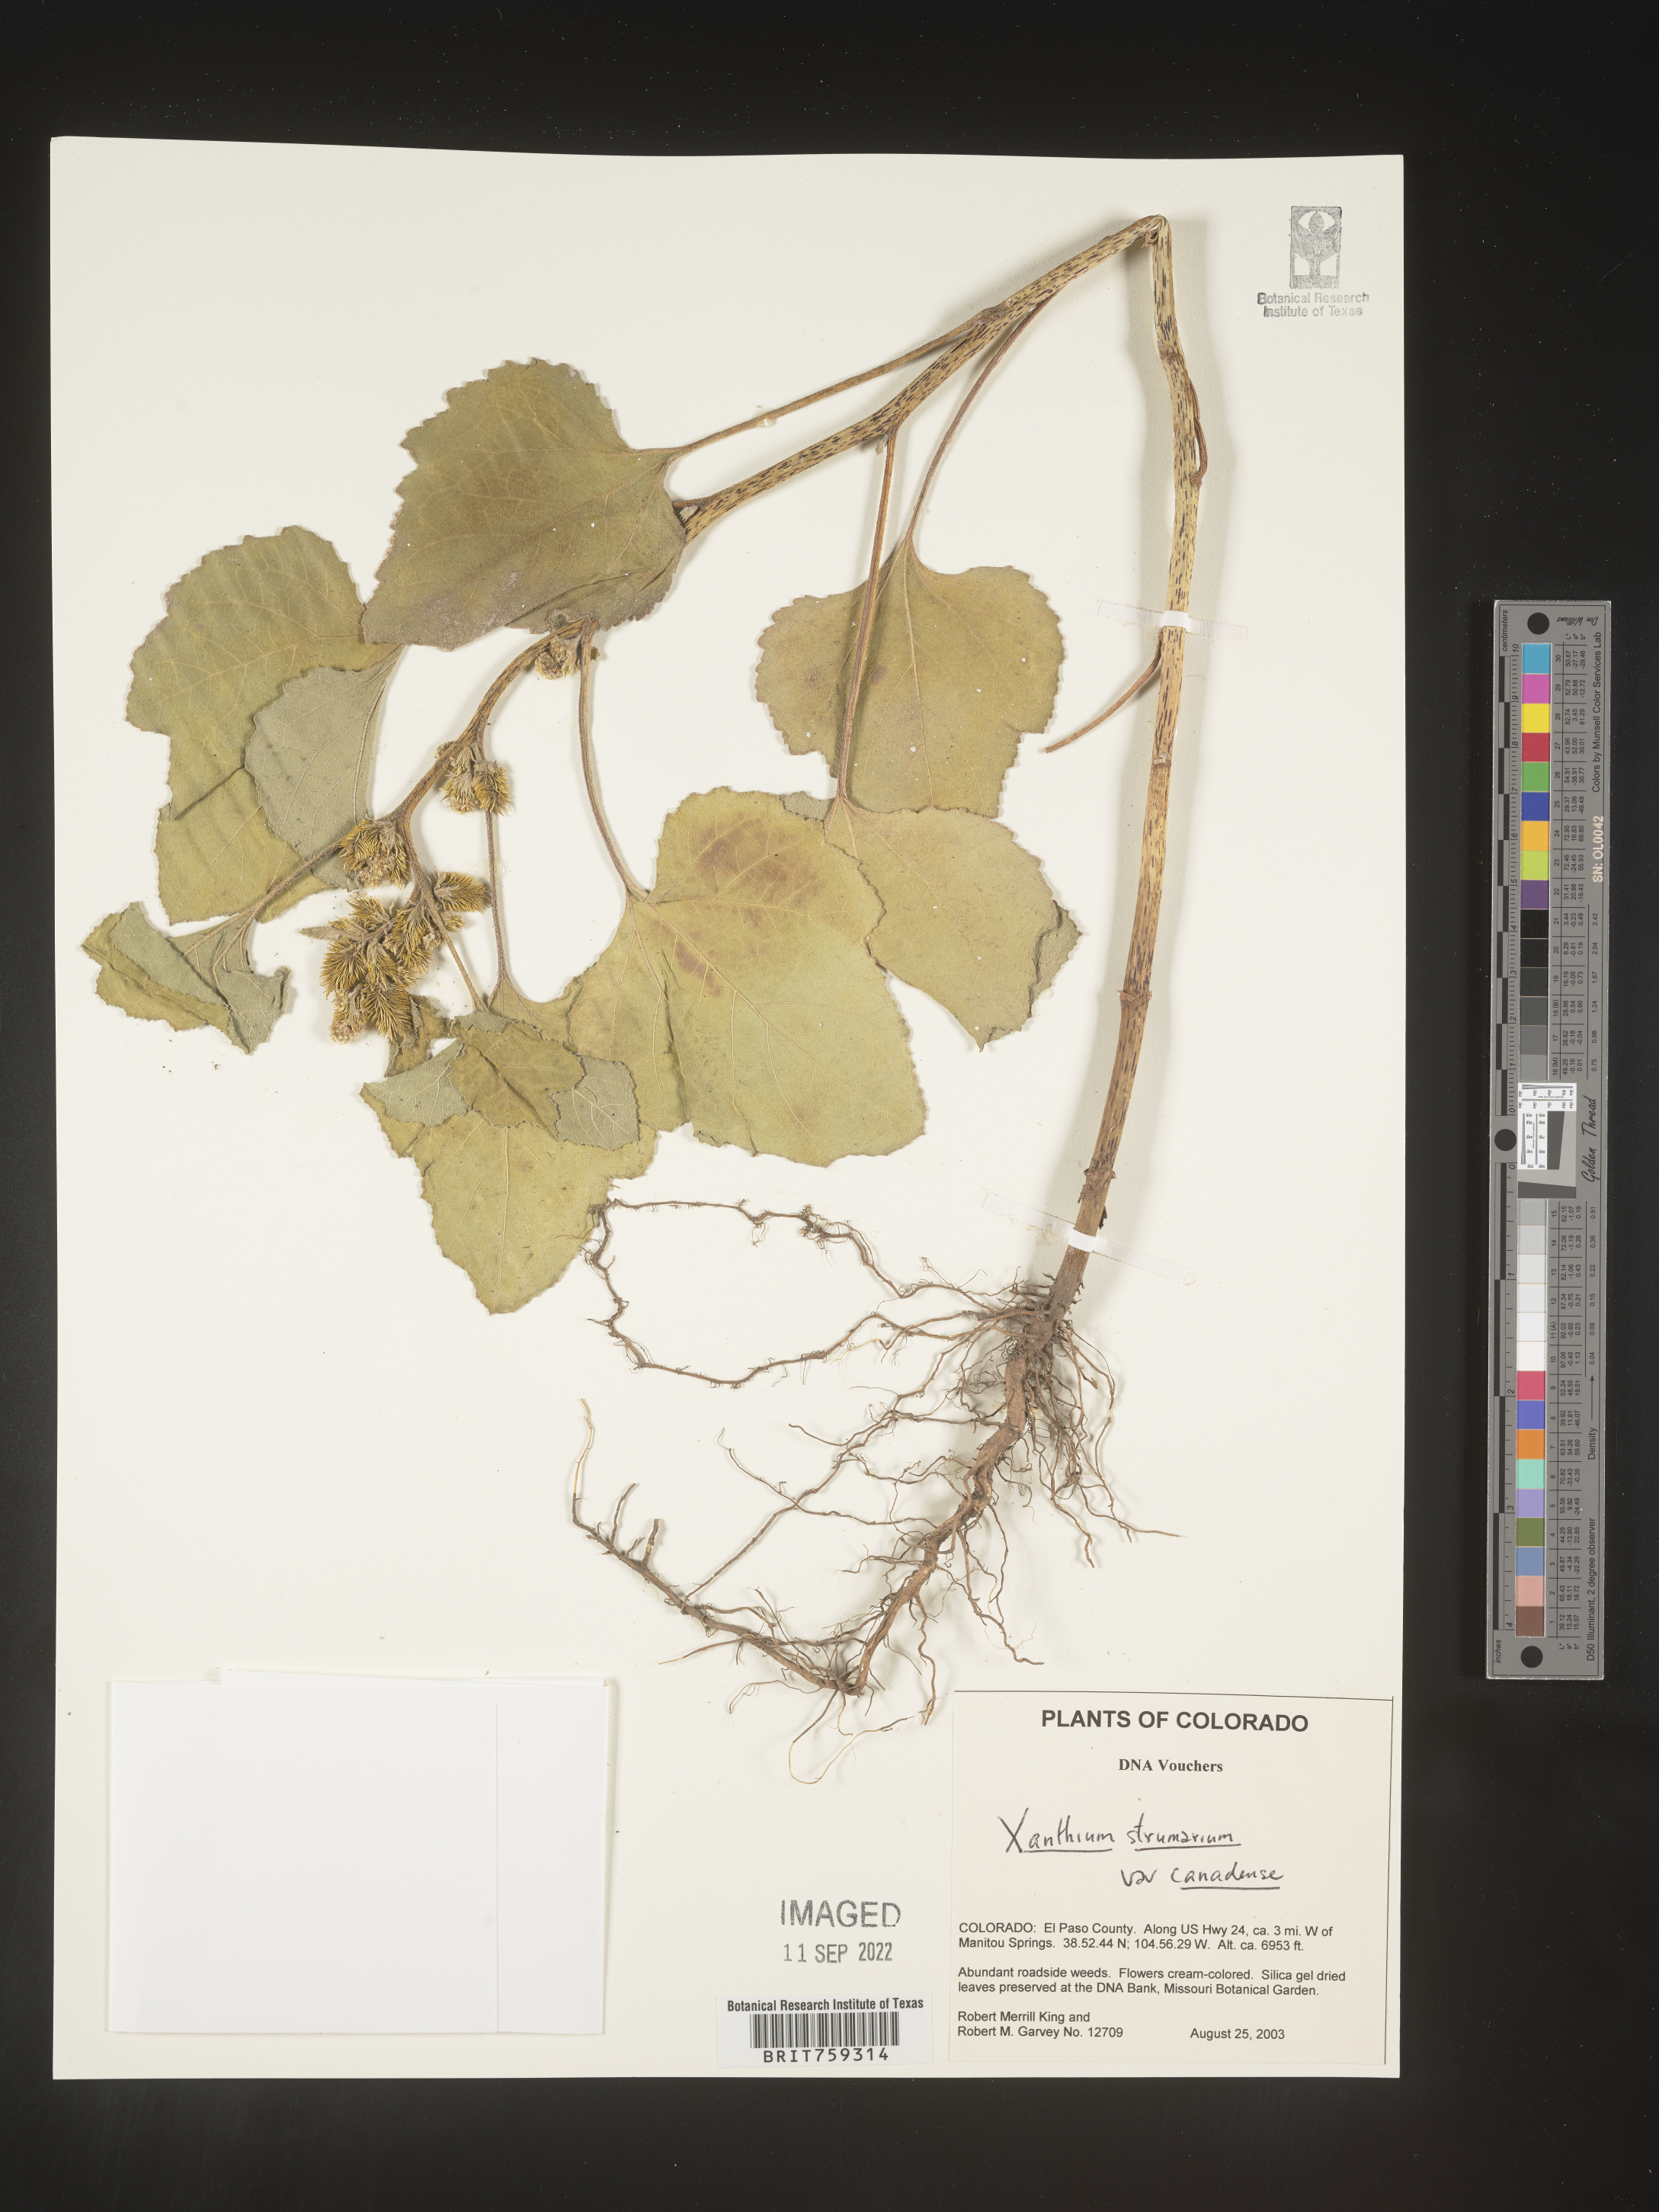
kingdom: Plantae
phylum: Tracheophyta
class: Magnoliopsida
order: Asterales
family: Asteraceae
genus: Xanthium
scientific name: Xanthium orientale
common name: Californian burr
